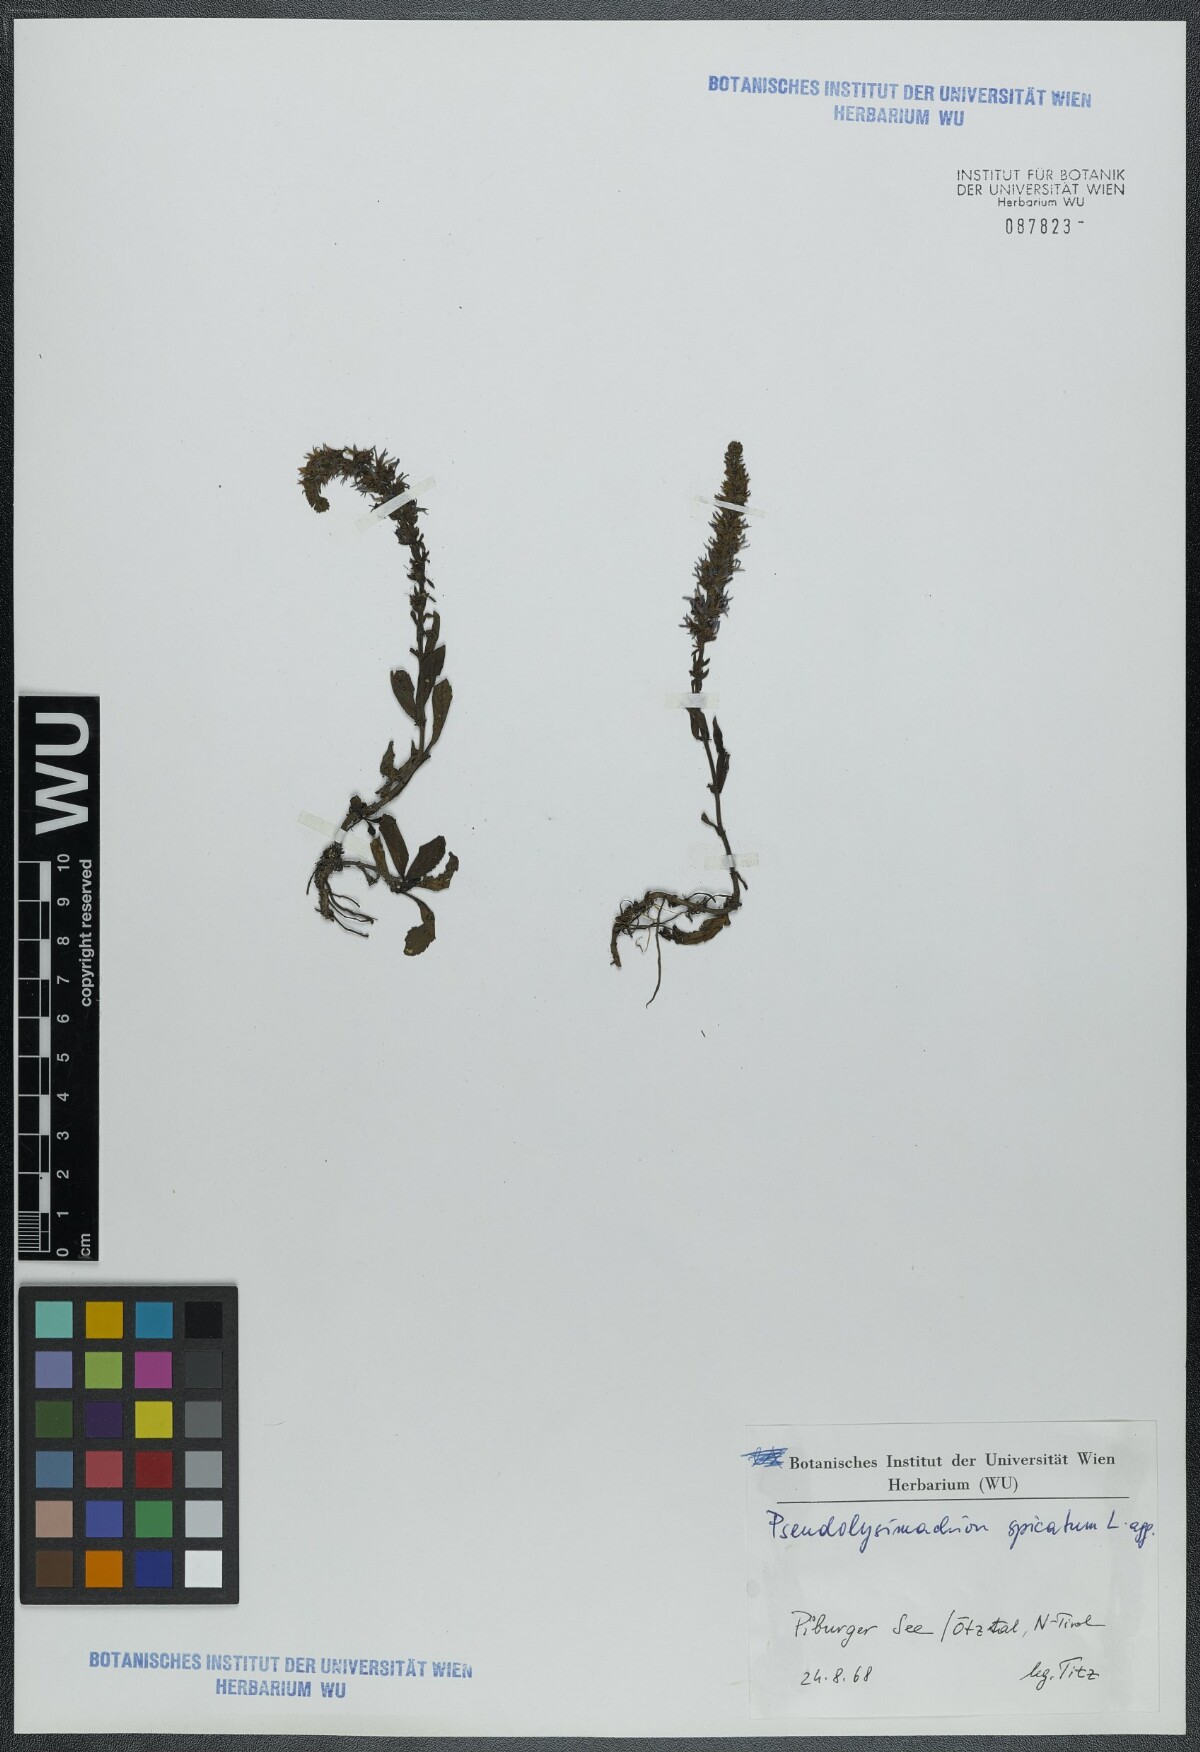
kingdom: Plantae
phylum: Tracheophyta
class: Magnoliopsida
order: Lamiales
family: Plantaginaceae
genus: Veronica
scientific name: Veronica spicata
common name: Spiked speedwell
